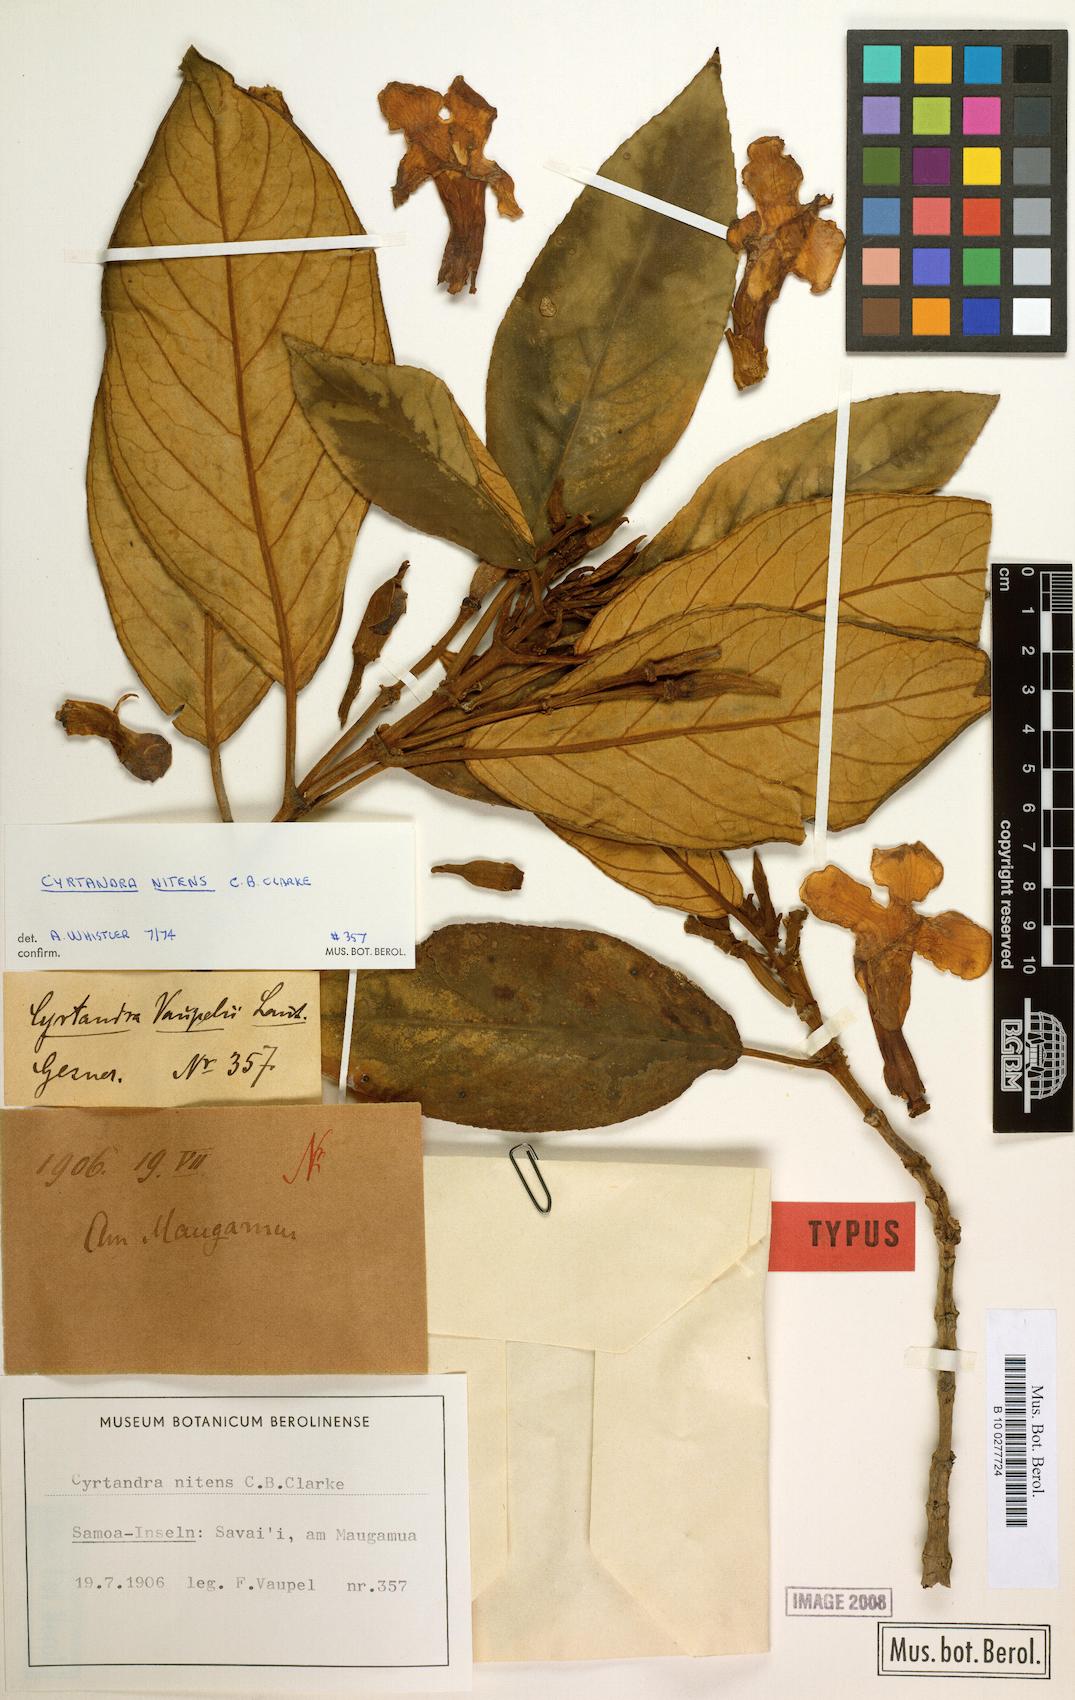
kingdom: Plantae
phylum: Tracheophyta
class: Magnoliopsida
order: Lamiales
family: Gesneriaceae
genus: Cyrtandra
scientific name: Cyrtandra nitens
